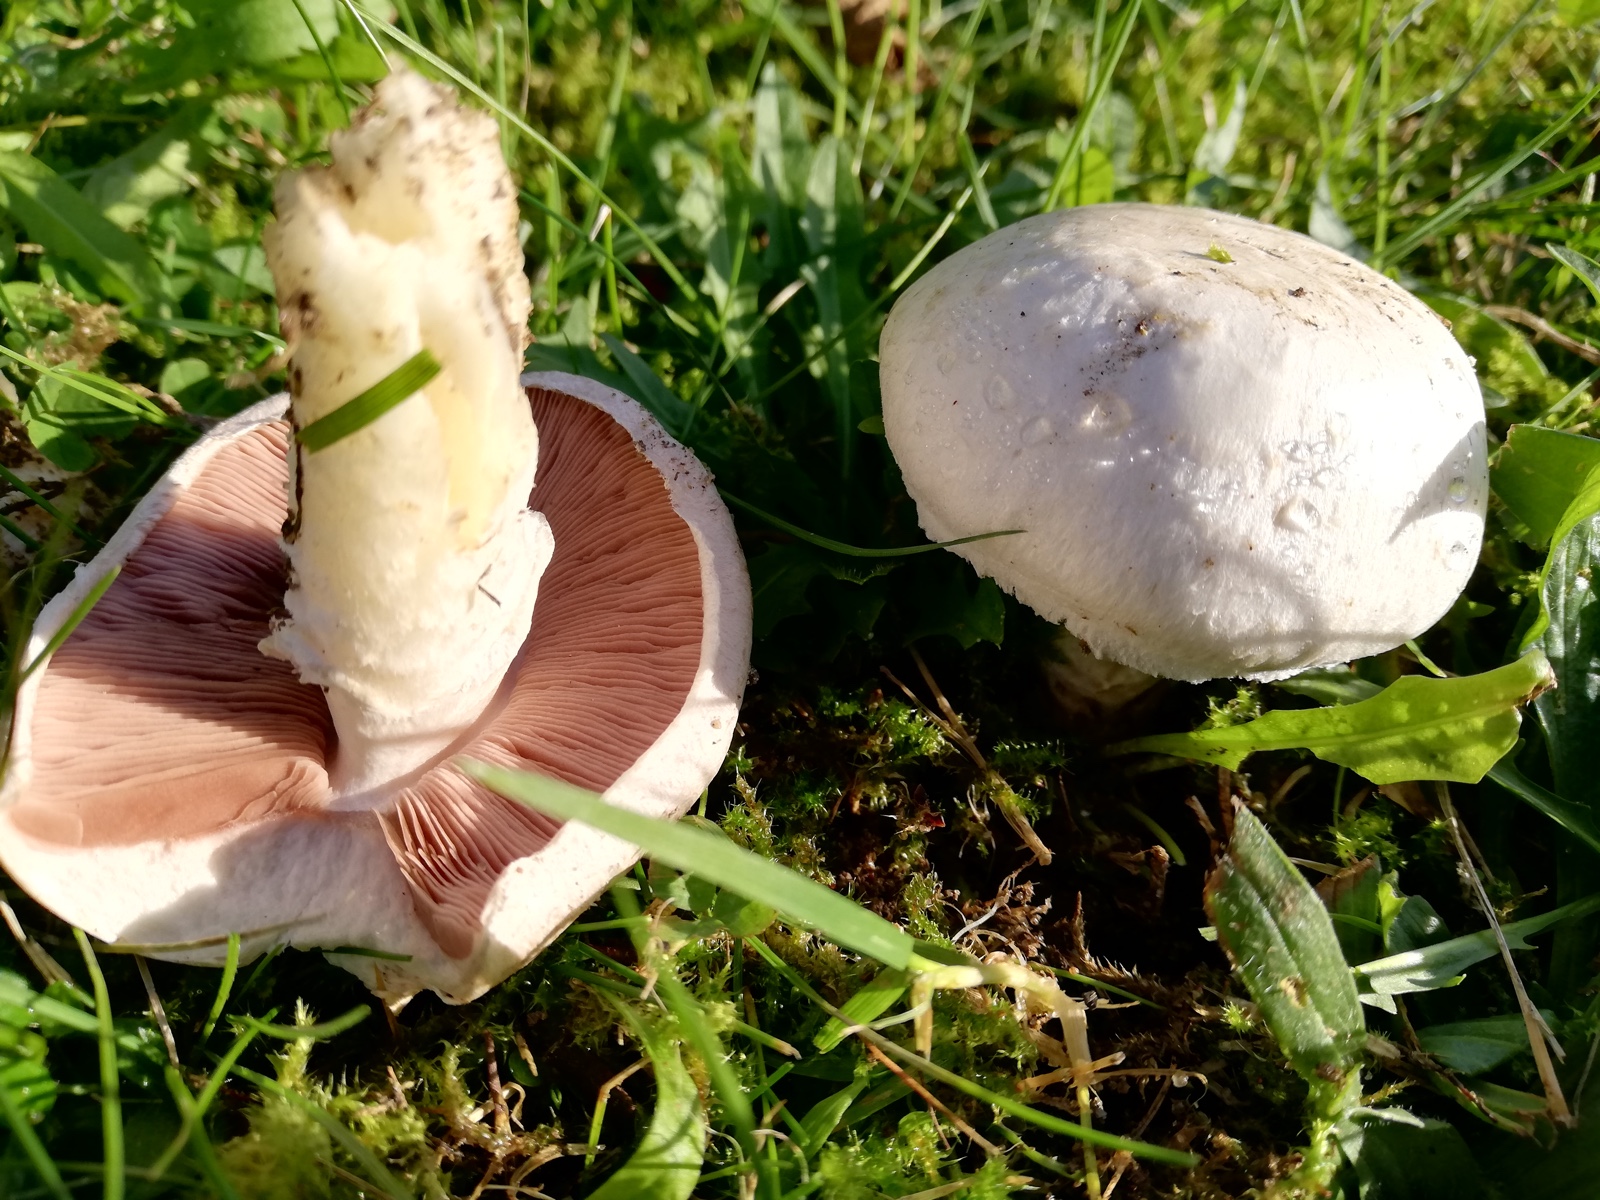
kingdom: Fungi
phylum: Basidiomycota
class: Agaricomycetes
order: Agaricales
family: Agaricaceae
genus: Agaricus
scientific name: Agaricus campestris
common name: mark-champignon
